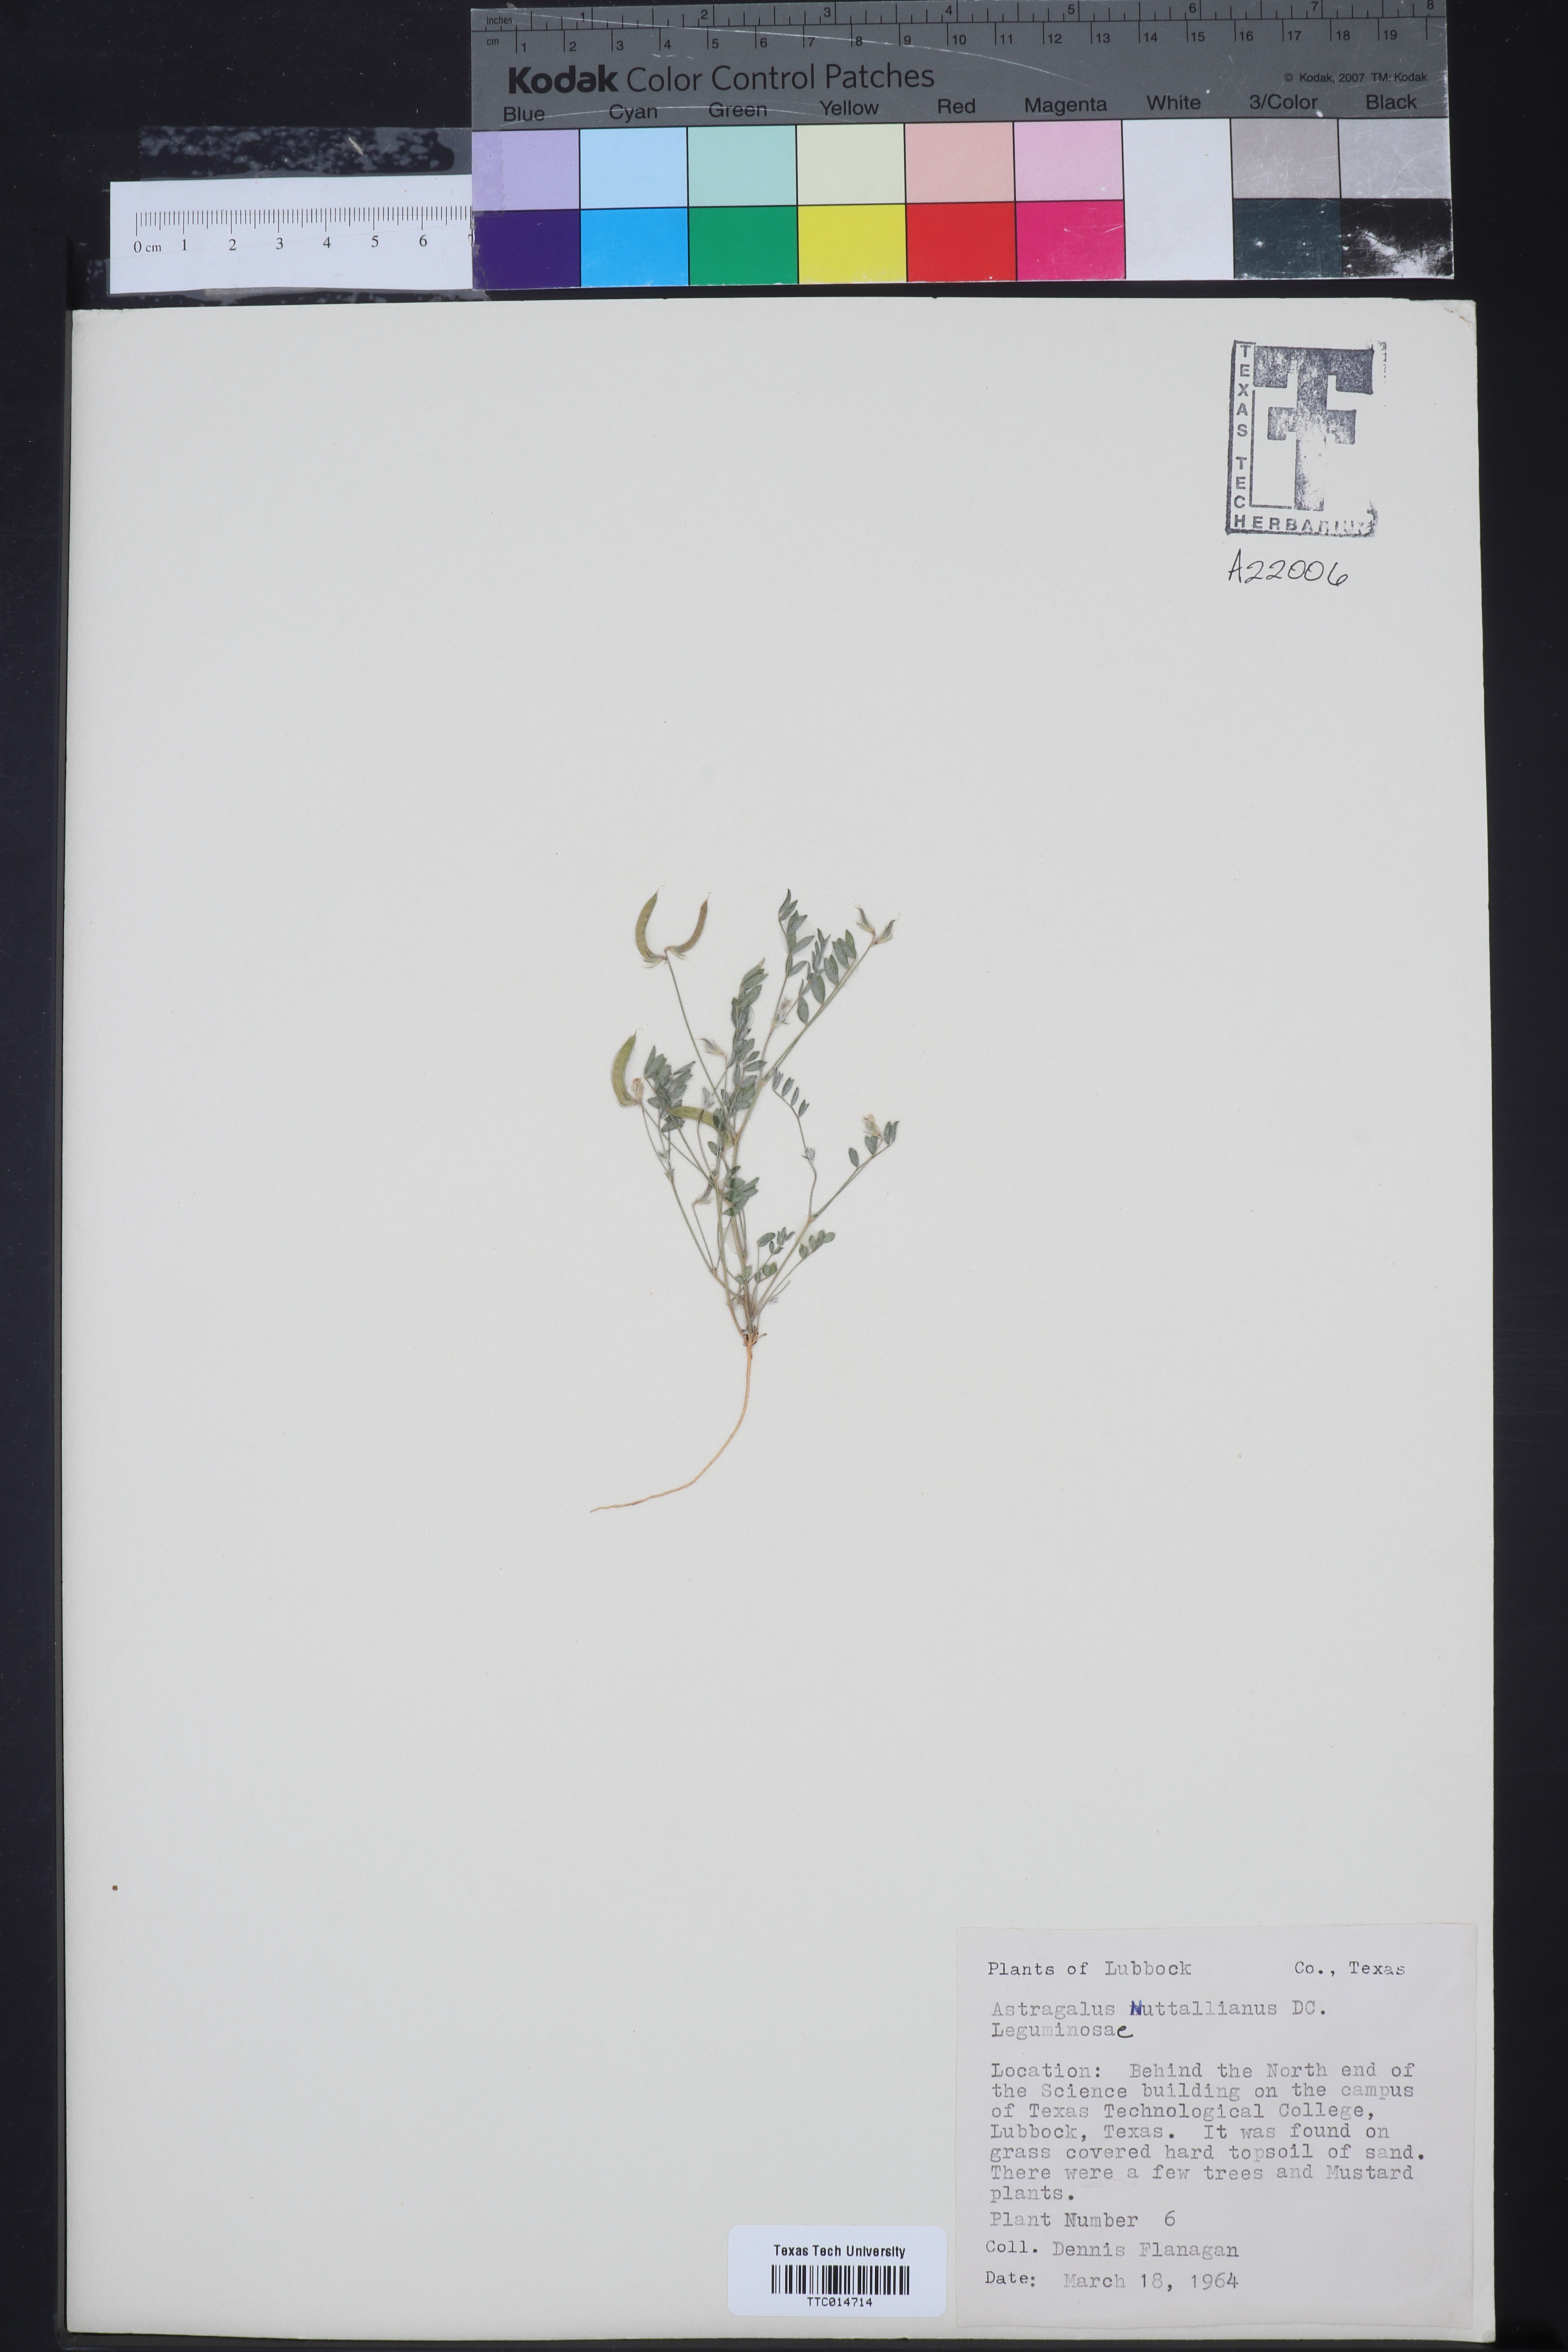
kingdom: Plantae
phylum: Tracheophyta
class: Magnoliopsida
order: Fabales
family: Fabaceae
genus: Astragalus
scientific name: Astragalus nuttallianus
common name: Smallflowered milkvetch
